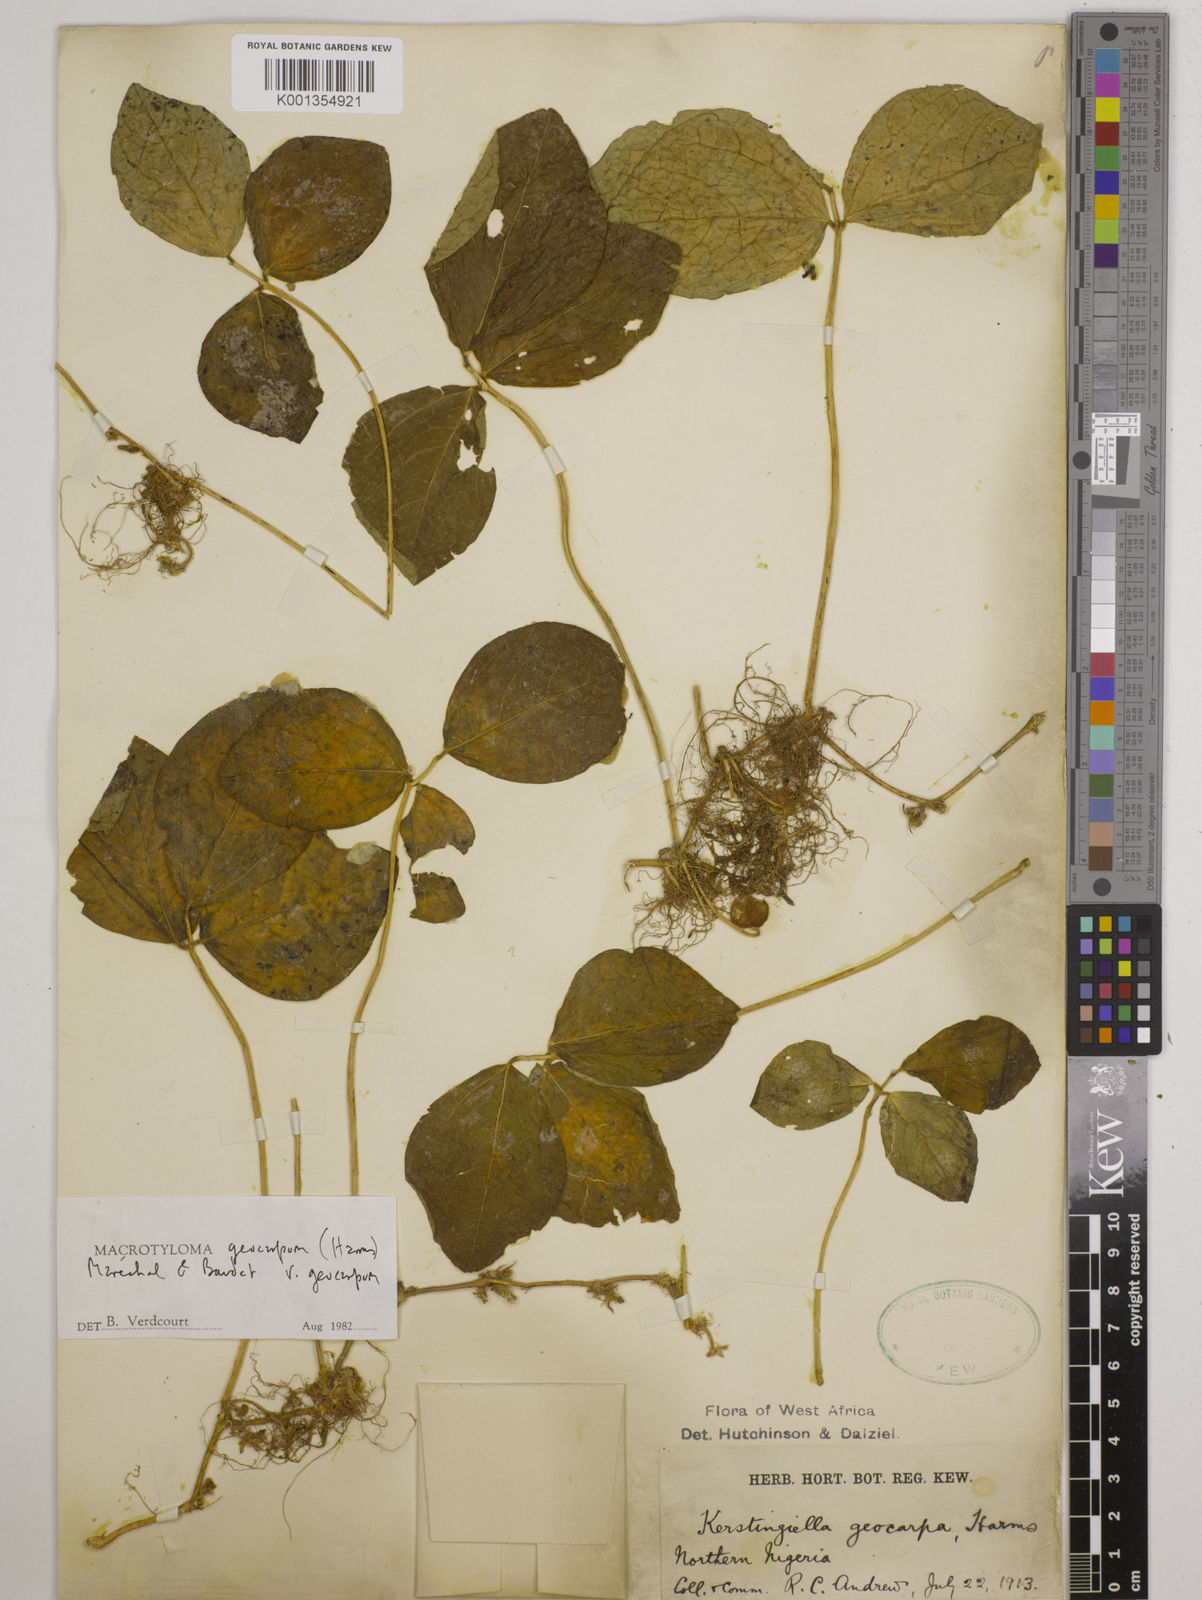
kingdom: Plantae
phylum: Tracheophyta
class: Magnoliopsida
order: Fabales
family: Fabaceae
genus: Macrotyloma
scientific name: Macrotyloma geocarpum
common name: Ground-bean
